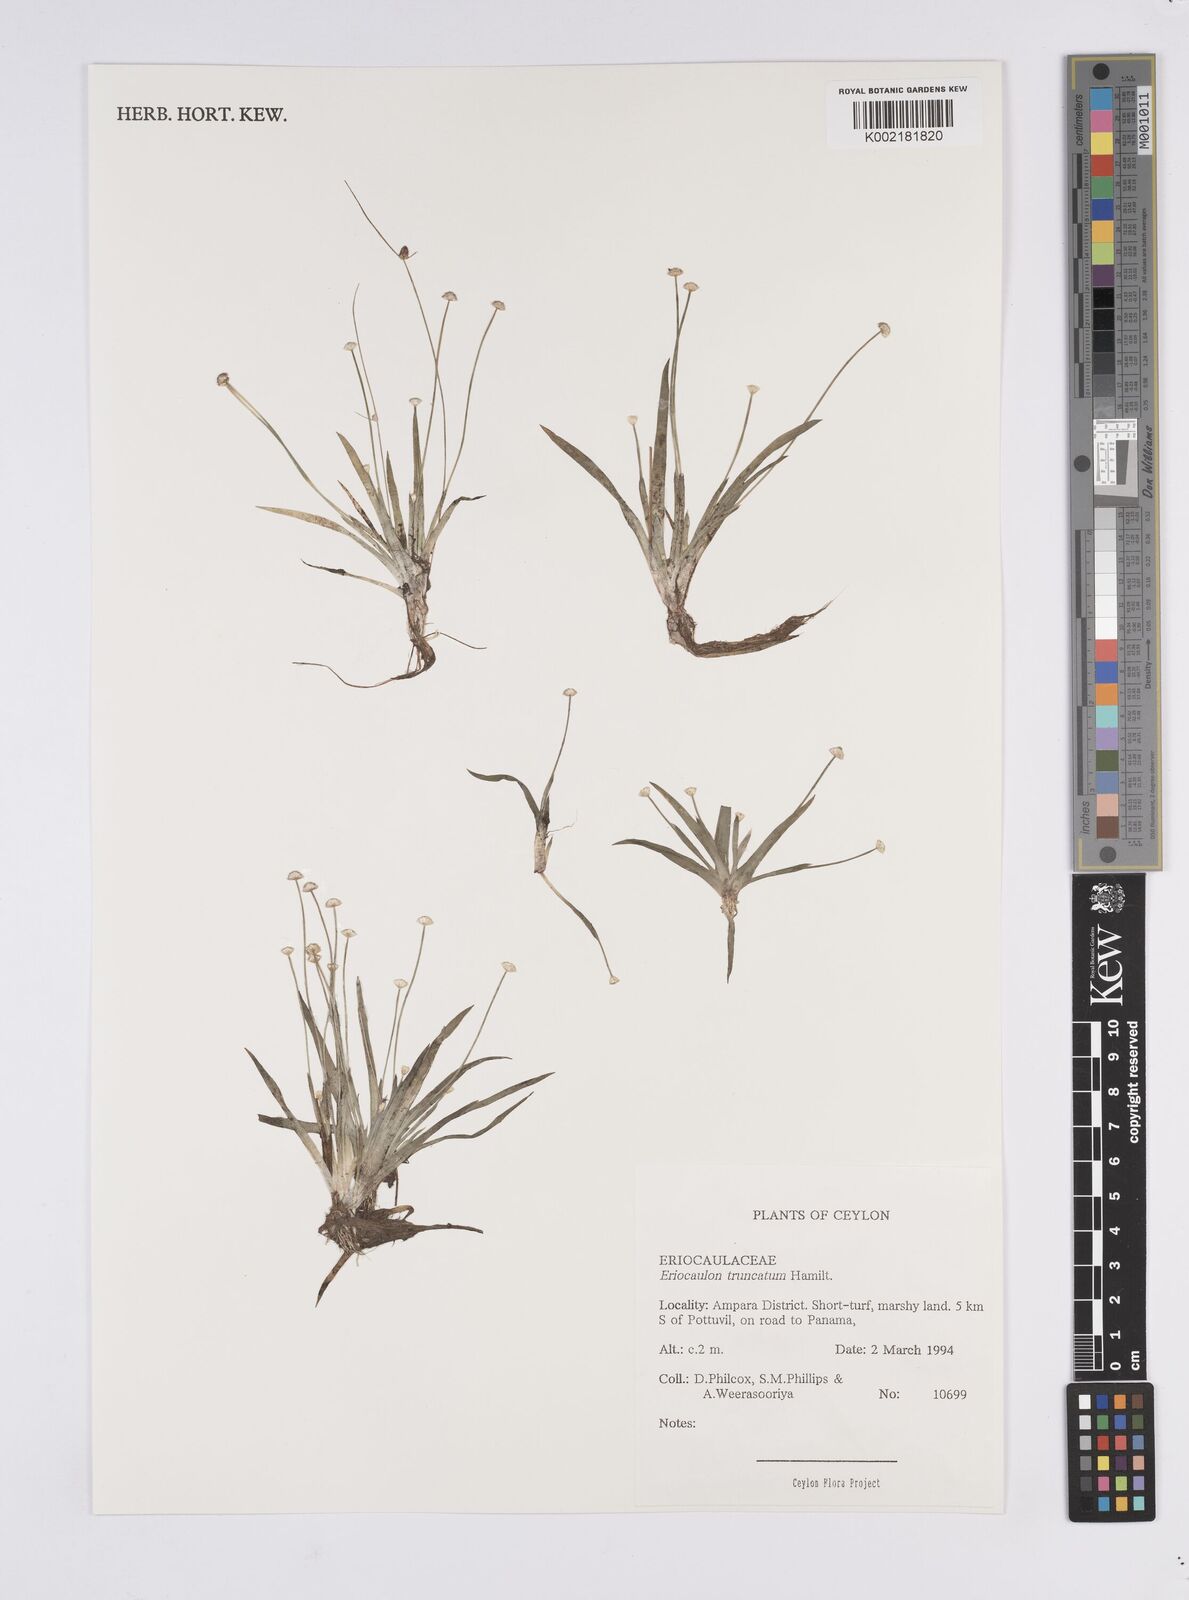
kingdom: Plantae
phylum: Tracheophyta
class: Liliopsida
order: Poales
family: Eriocaulaceae
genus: Eriocaulon
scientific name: Eriocaulon truncatum
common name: Short pipe-wort
